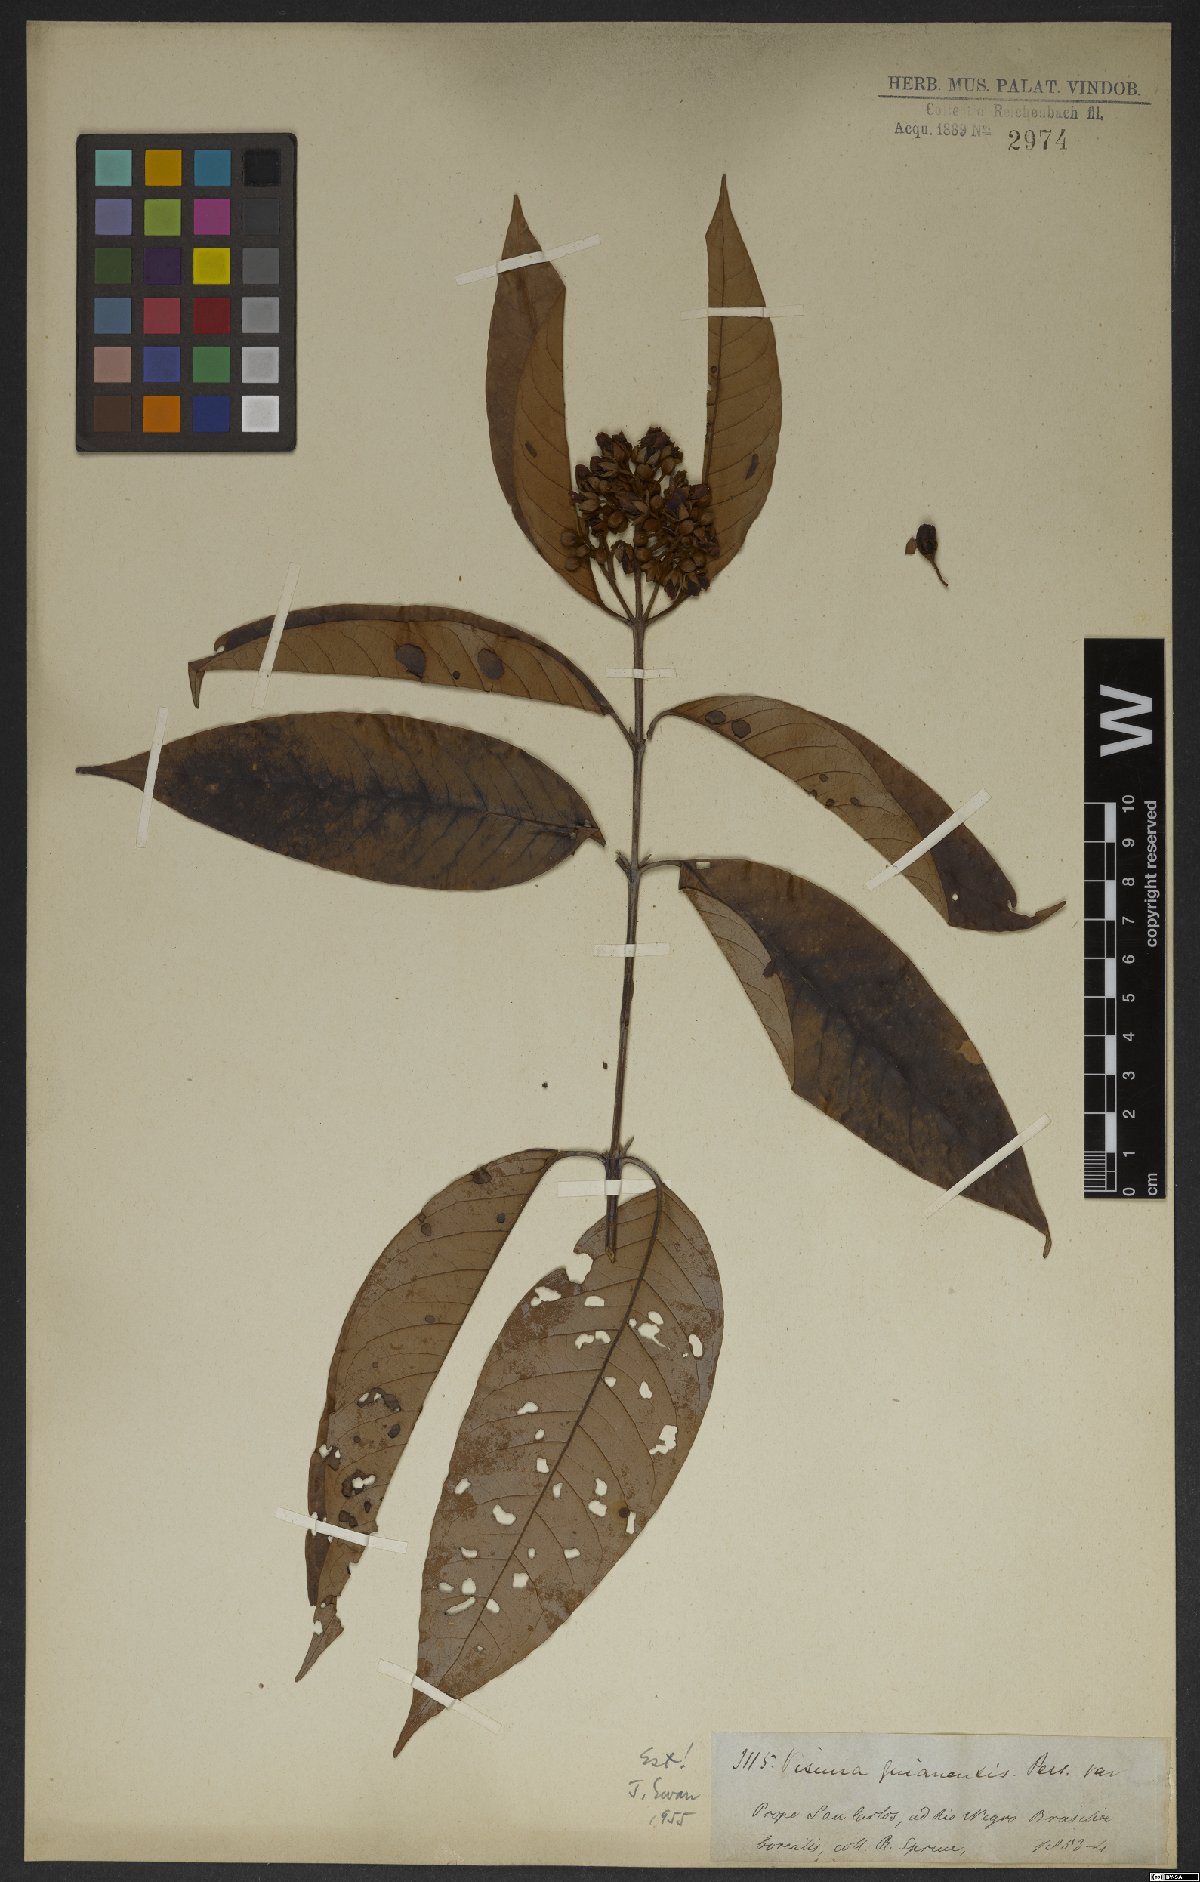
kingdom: Plantae
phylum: Tracheophyta
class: Magnoliopsida
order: Malpighiales
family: Hypericaceae
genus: Vismia
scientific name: Vismia laxiflora
